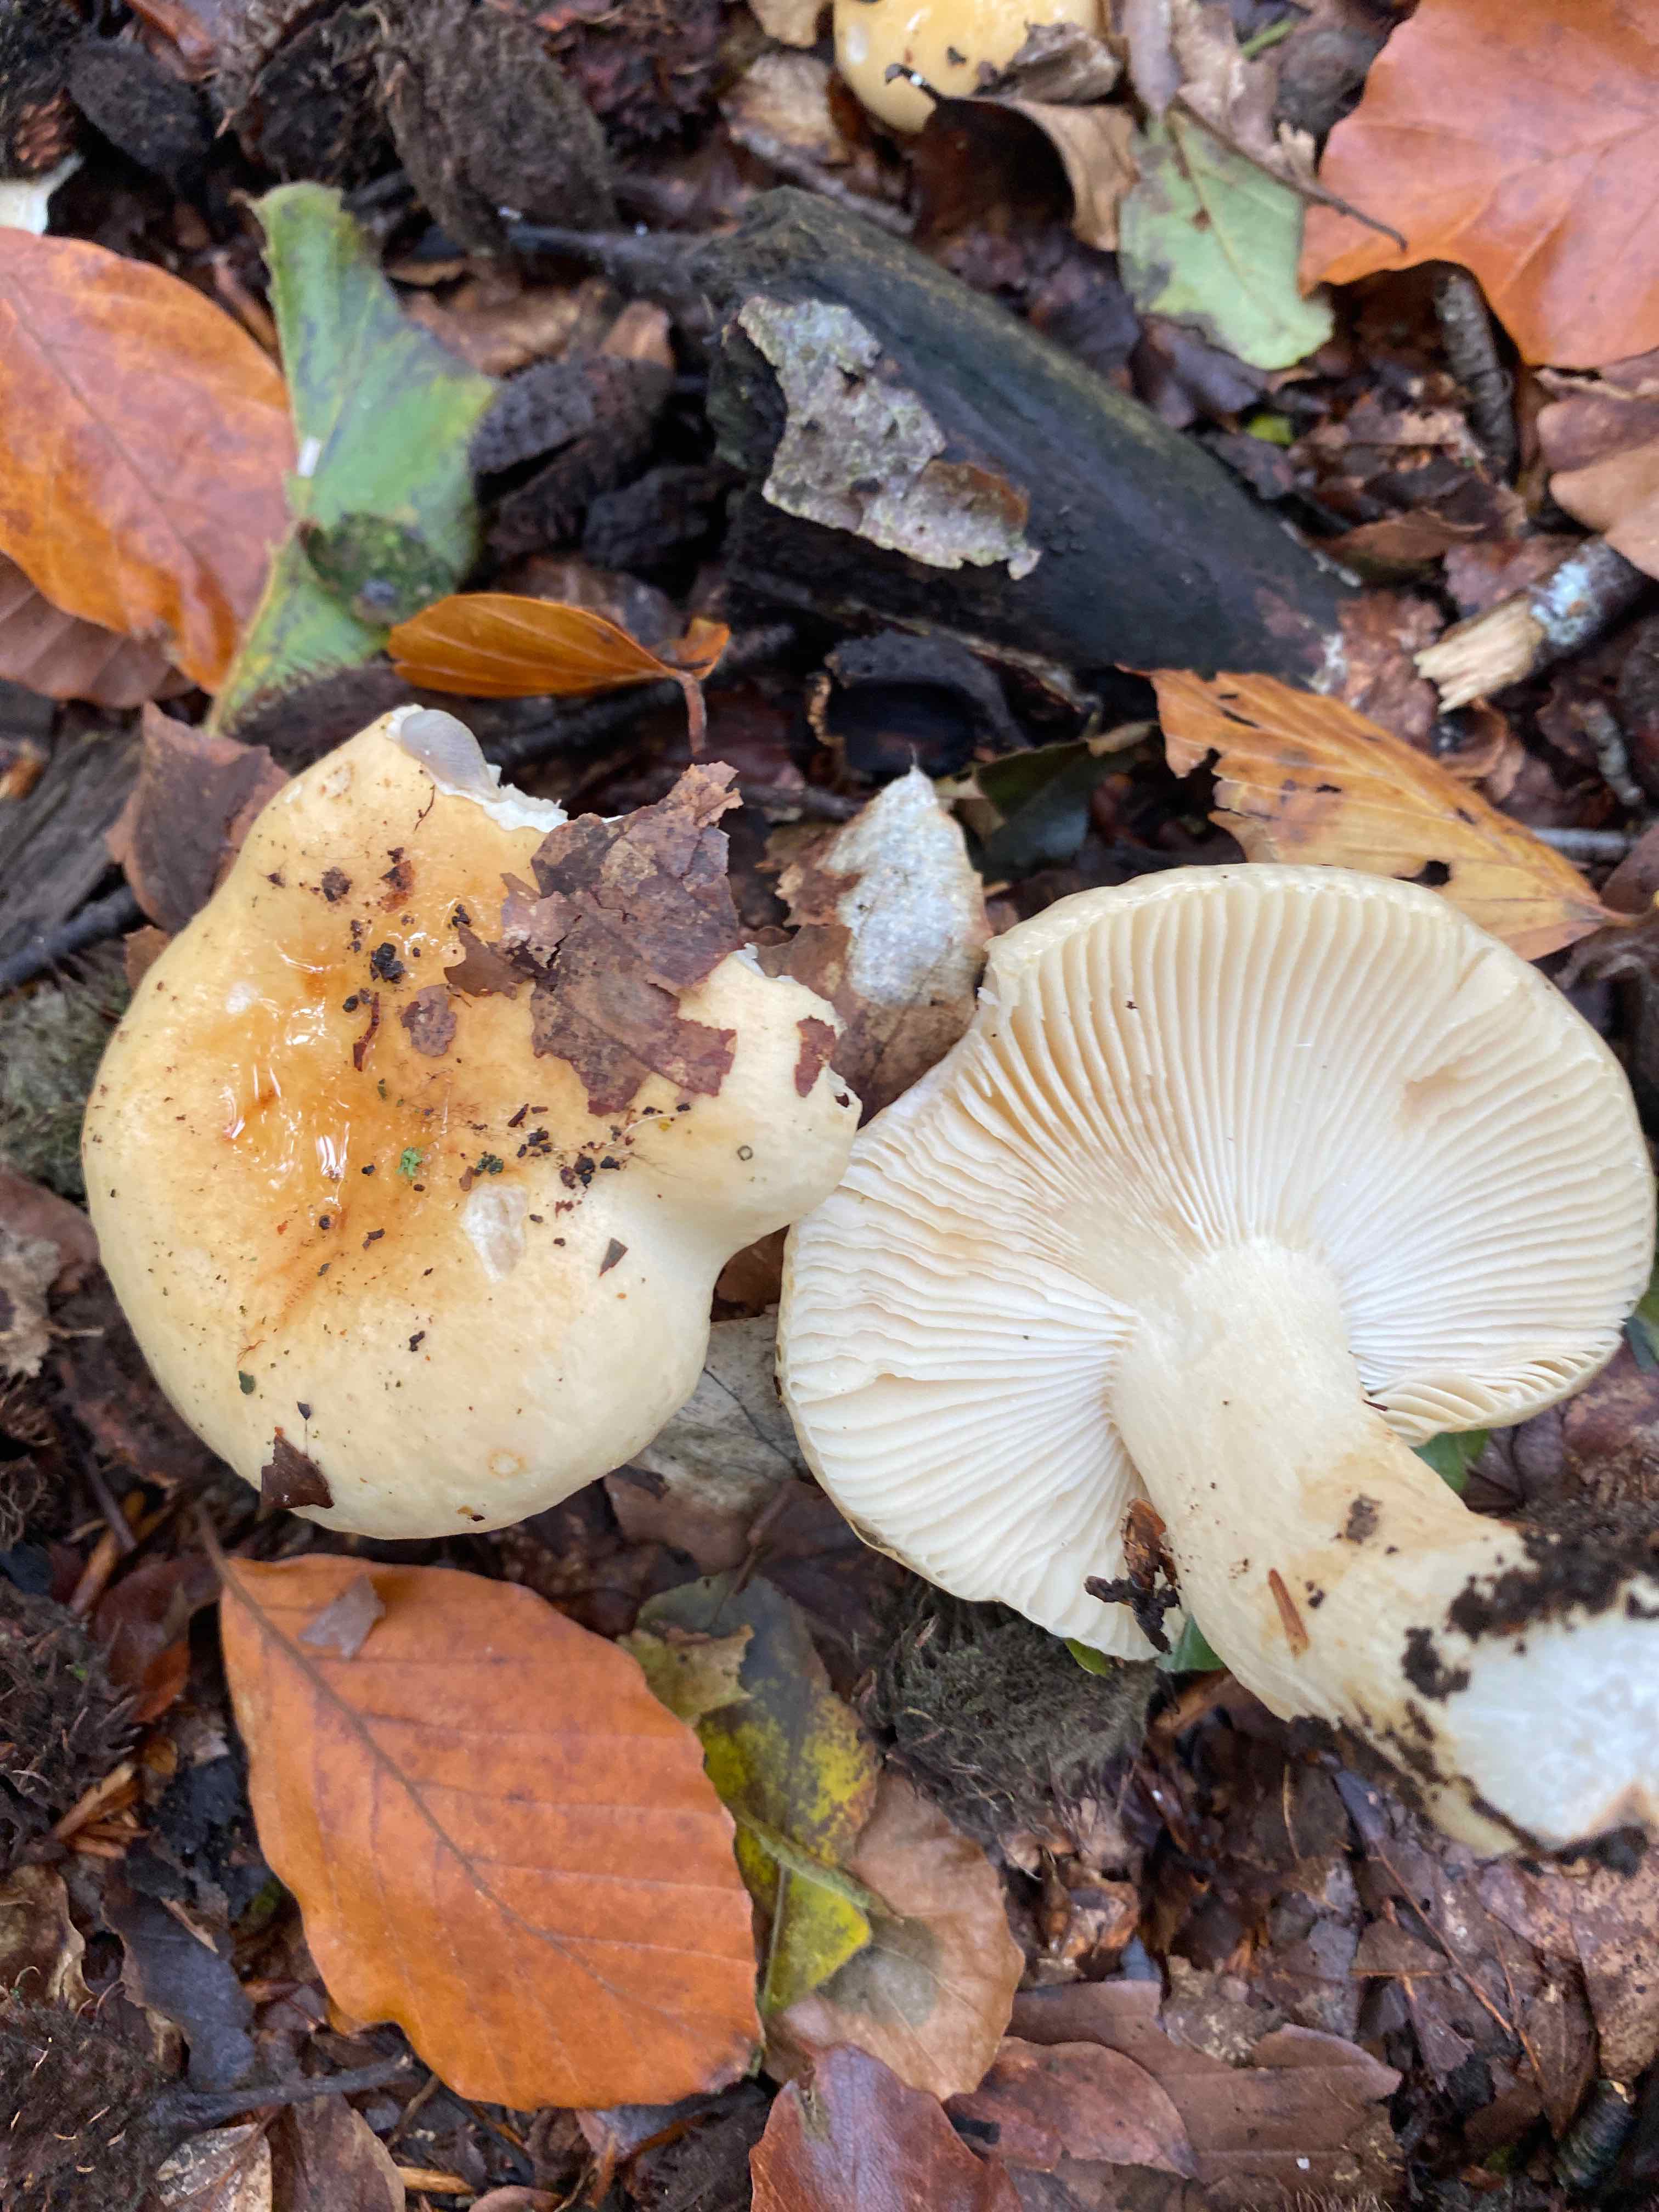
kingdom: Fungi
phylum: Basidiomycota
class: Agaricomycetes
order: Russulales
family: Russulaceae
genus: Russula
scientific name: Russula fellea
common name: galde-skørhat
